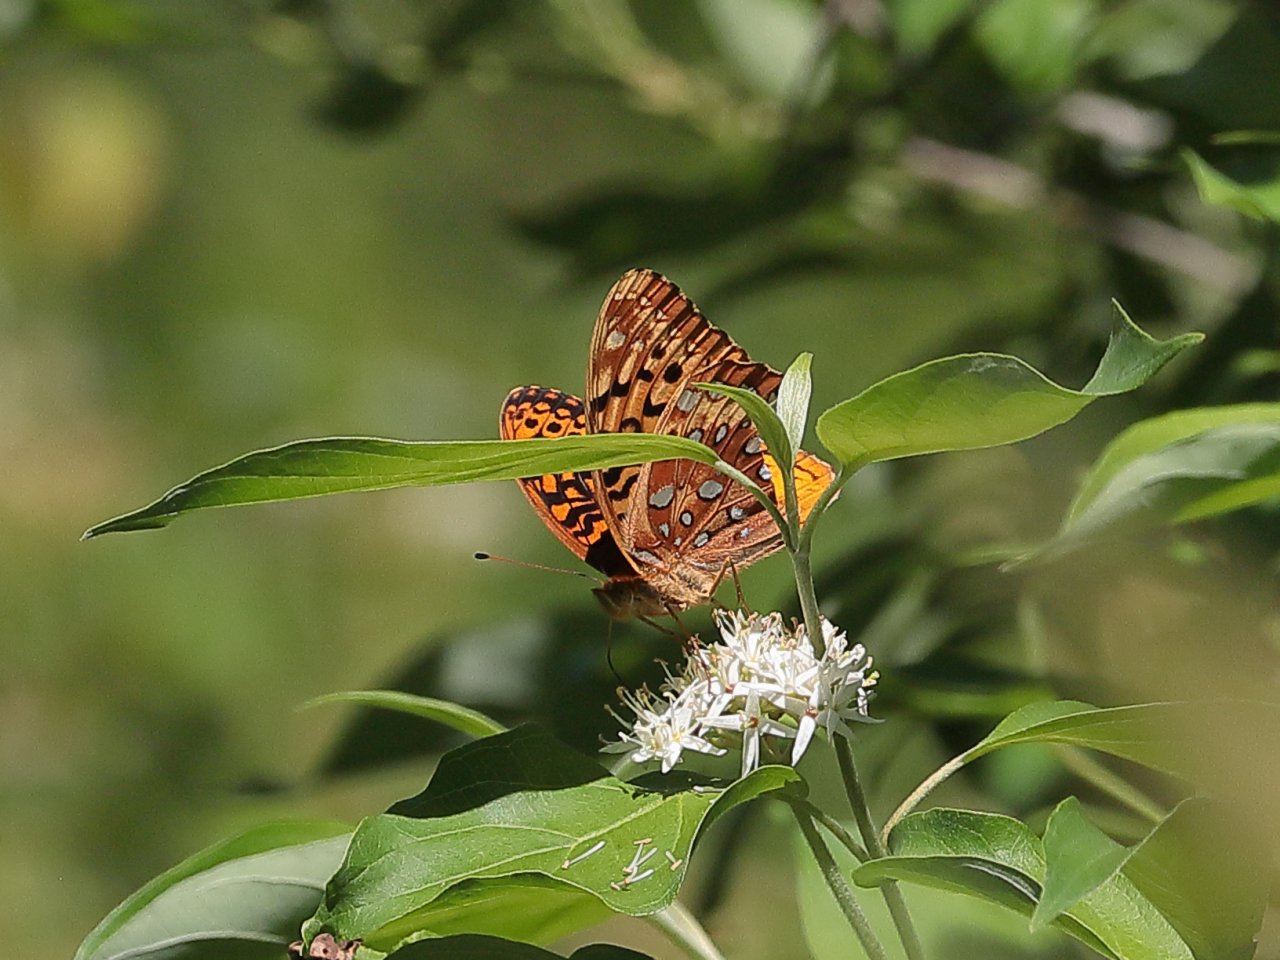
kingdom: Animalia
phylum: Arthropoda
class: Insecta
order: Lepidoptera
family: Nymphalidae
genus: Speyeria
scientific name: Speyeria cybele
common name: Great Spangled Fritillary
